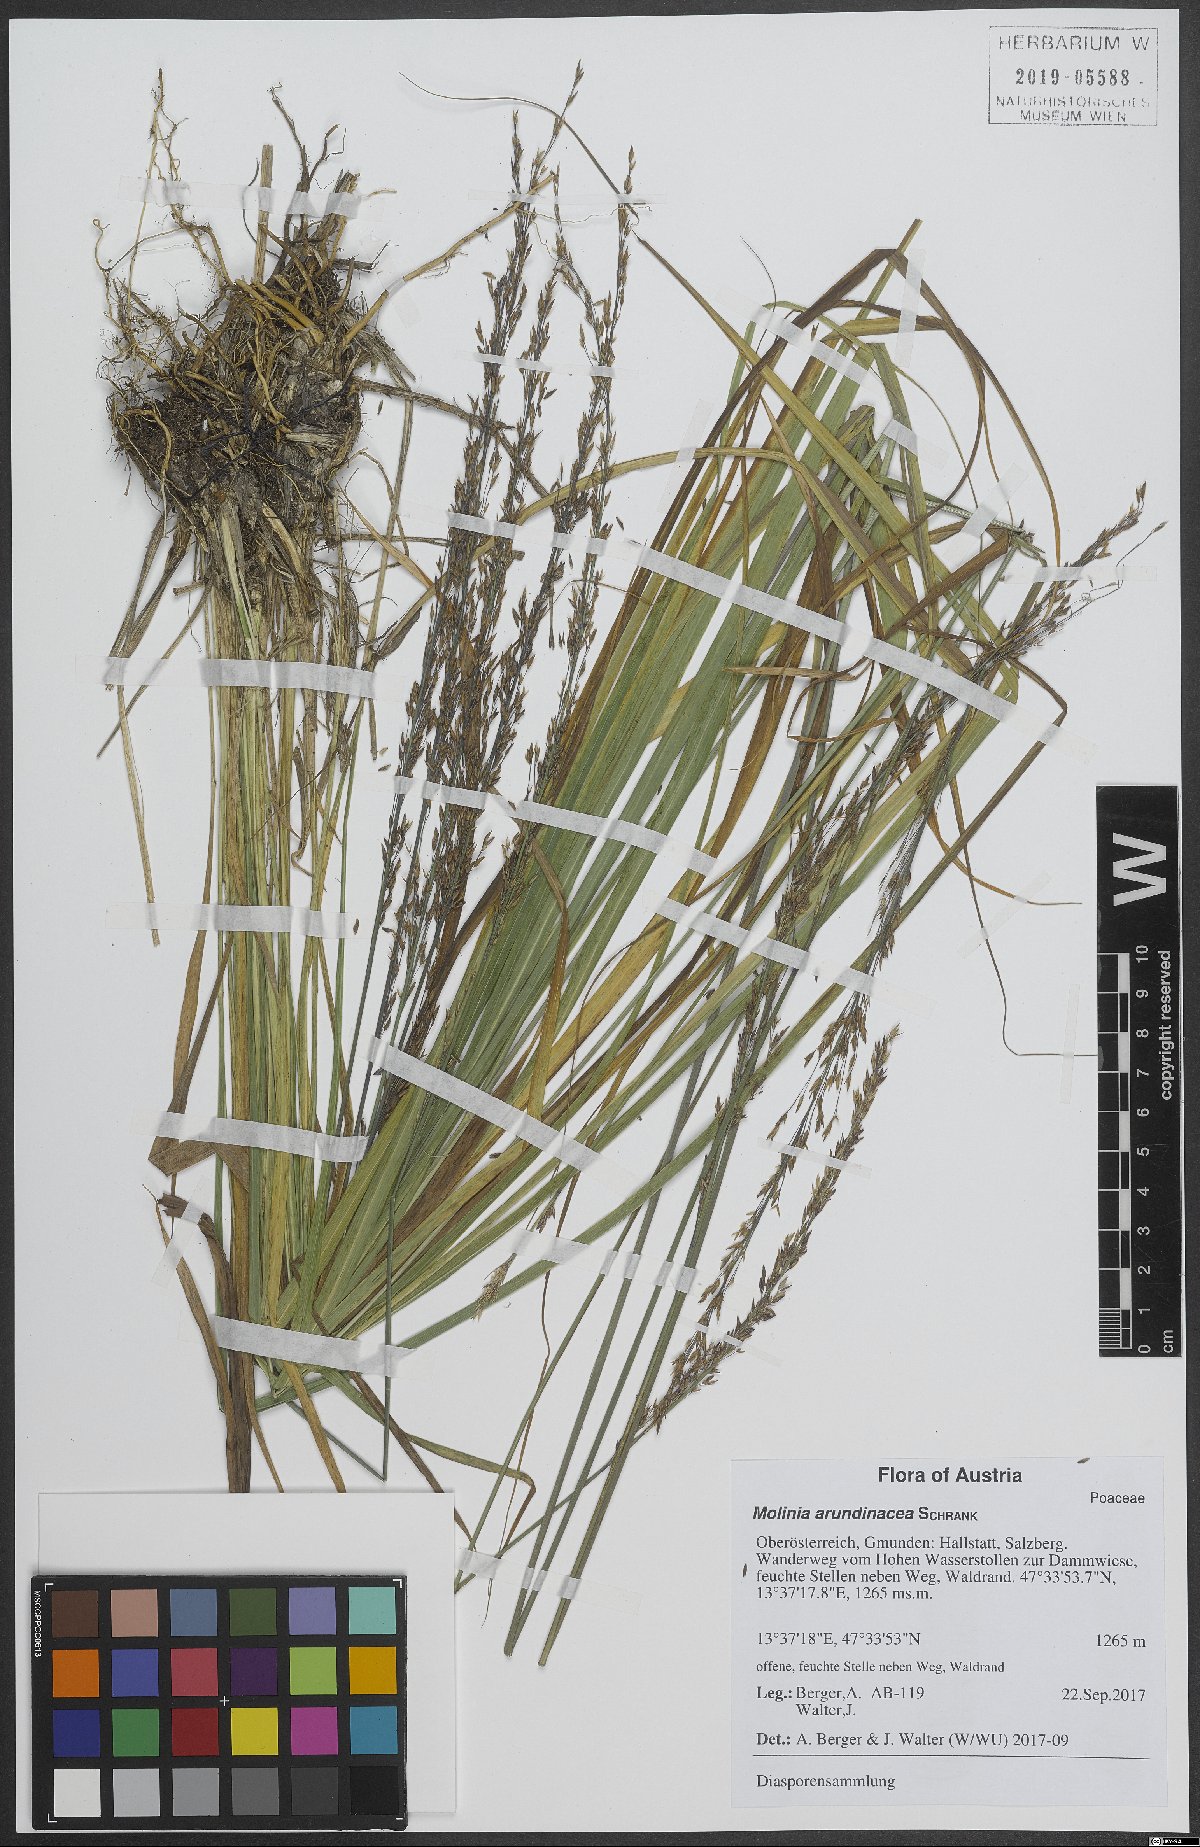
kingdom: Plantae
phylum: Tracheophyta
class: Liliopsida
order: Poales
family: Poaceae
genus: Molinia
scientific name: Molinia arundinacea
